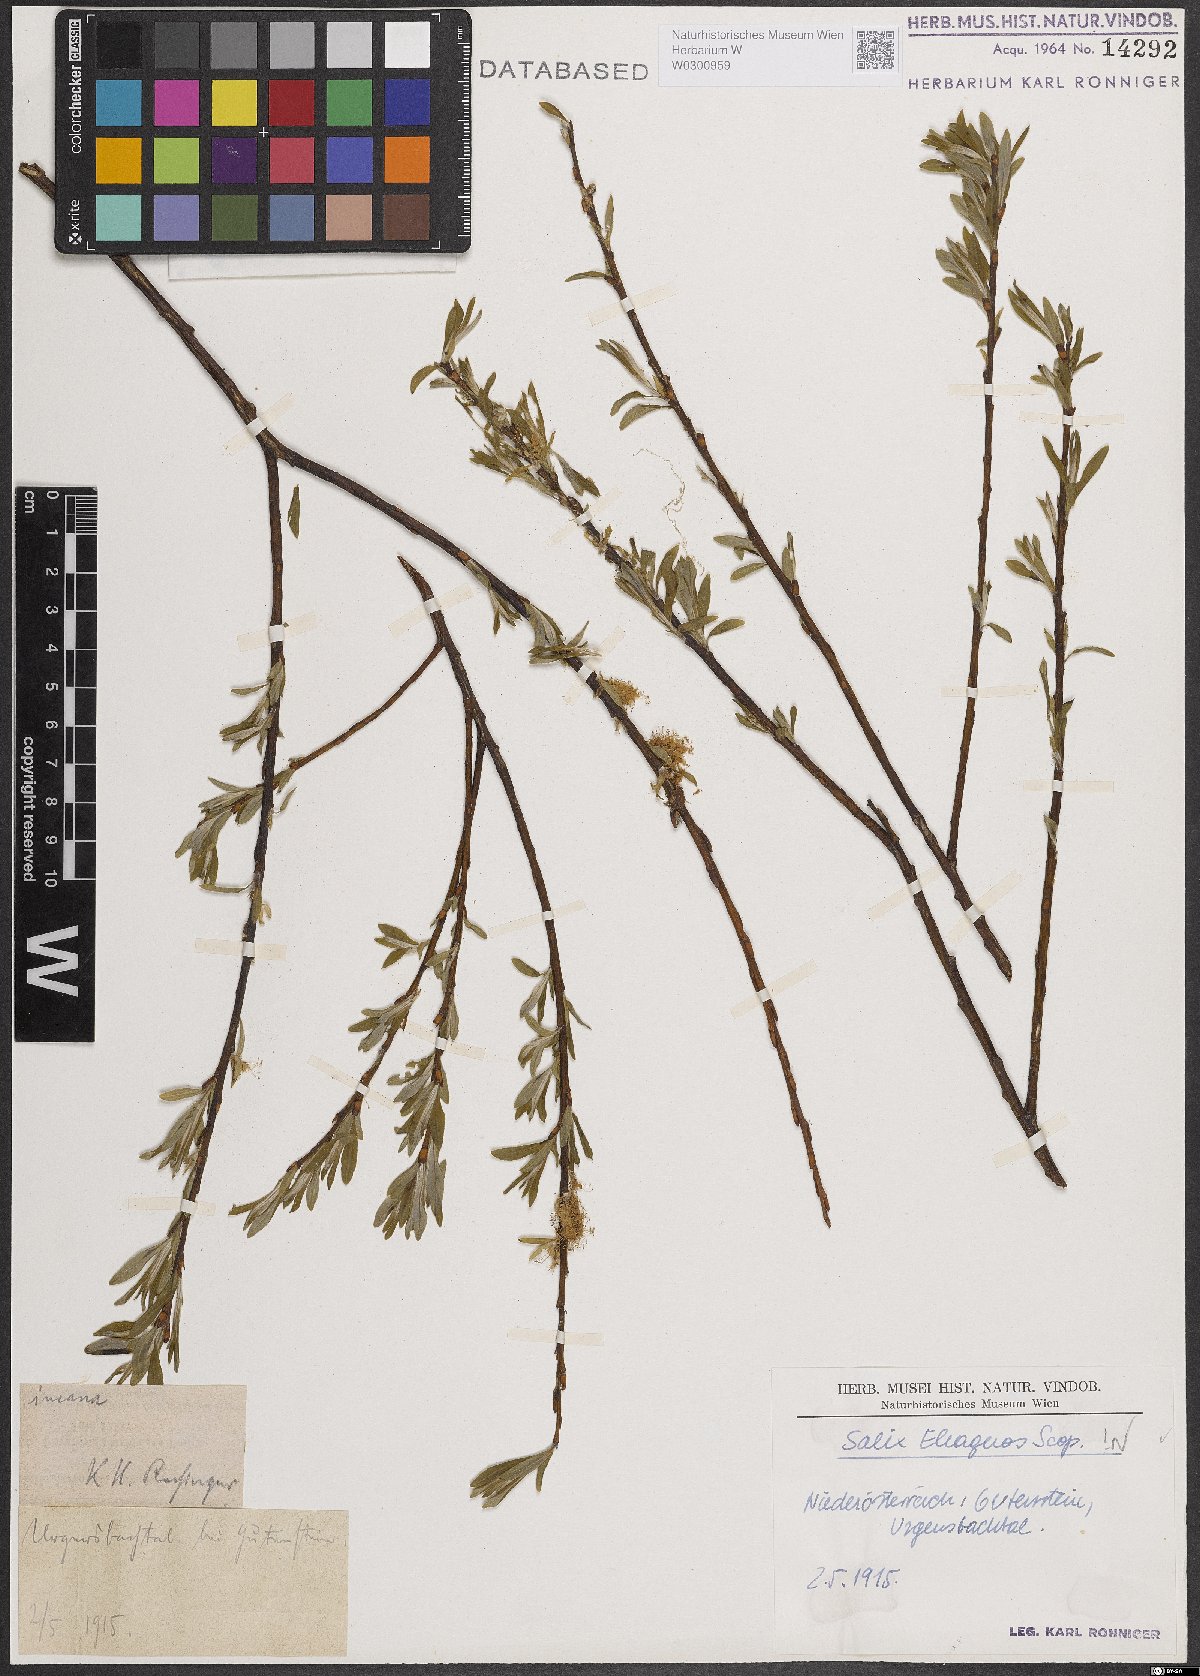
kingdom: Plantae
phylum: Tracheophyta
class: Magnoliopsida
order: Malpighiales
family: Salicaceae
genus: Salix
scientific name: Salix eleagnos
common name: Elaeagnus willow
